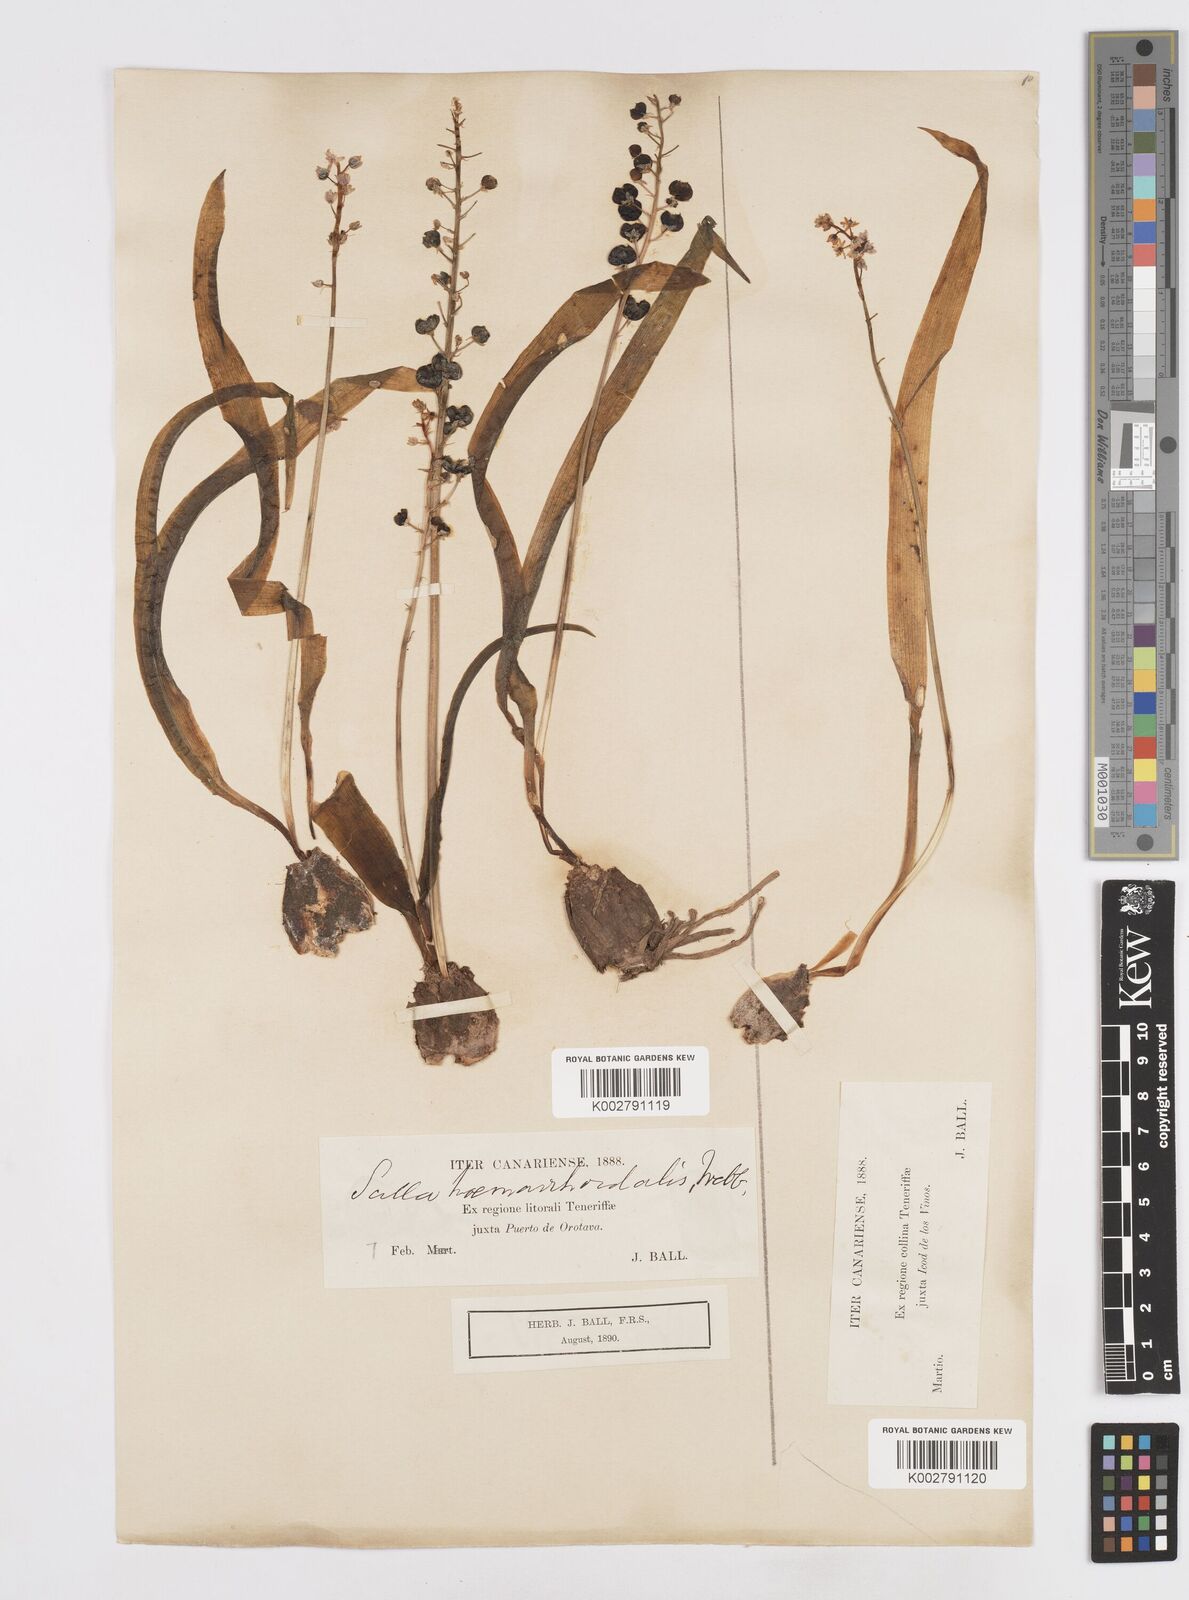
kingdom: Plantae
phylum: Tracheophyta
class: Liliopsida
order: Asparagales
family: Asparagaceae
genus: Scilla
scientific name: Scilla haemorrhoidalis
